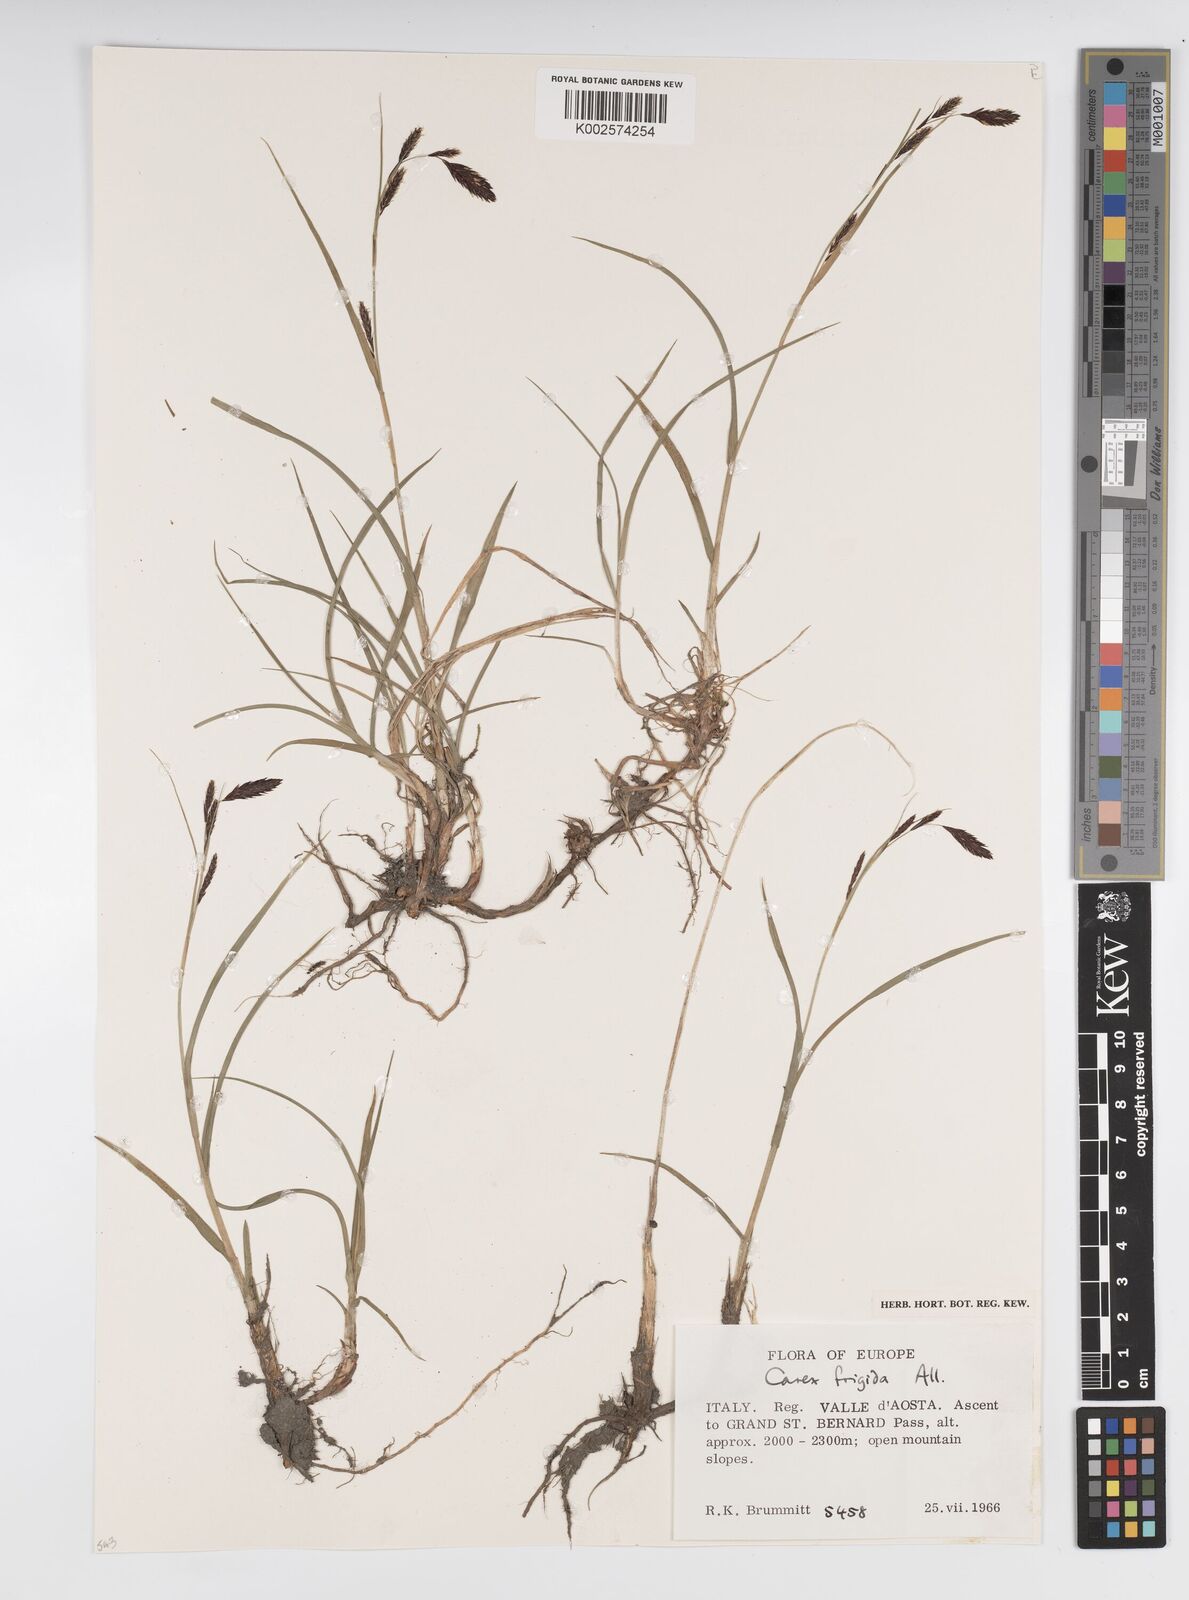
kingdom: Plantae
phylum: Tracheophyta
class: Liliopsida
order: Poales
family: Cyperaceae
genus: Carex
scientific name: Carex frigida
